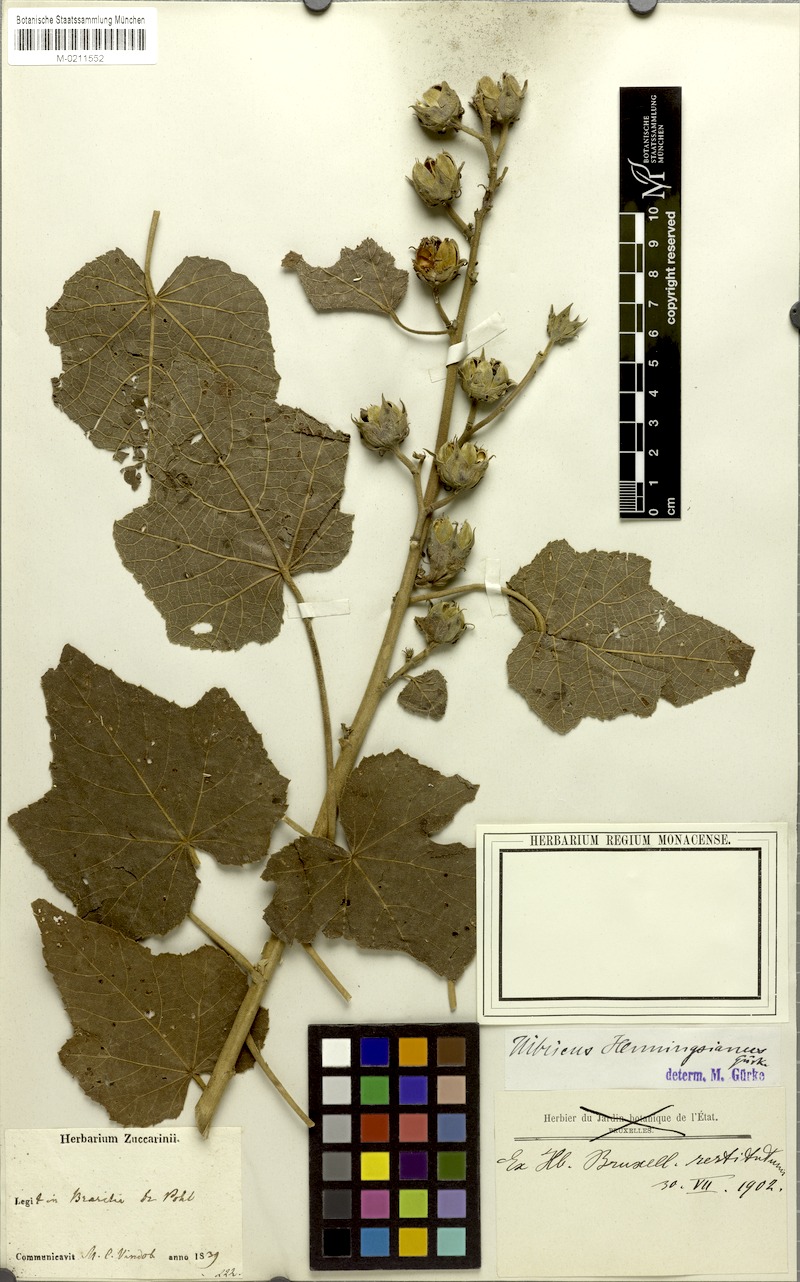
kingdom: Plantae
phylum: Tracheophyta
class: Magnoliopsida
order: Malvales
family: Malvaceae
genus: Hibiscus
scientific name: Hibiscus henningsianus
